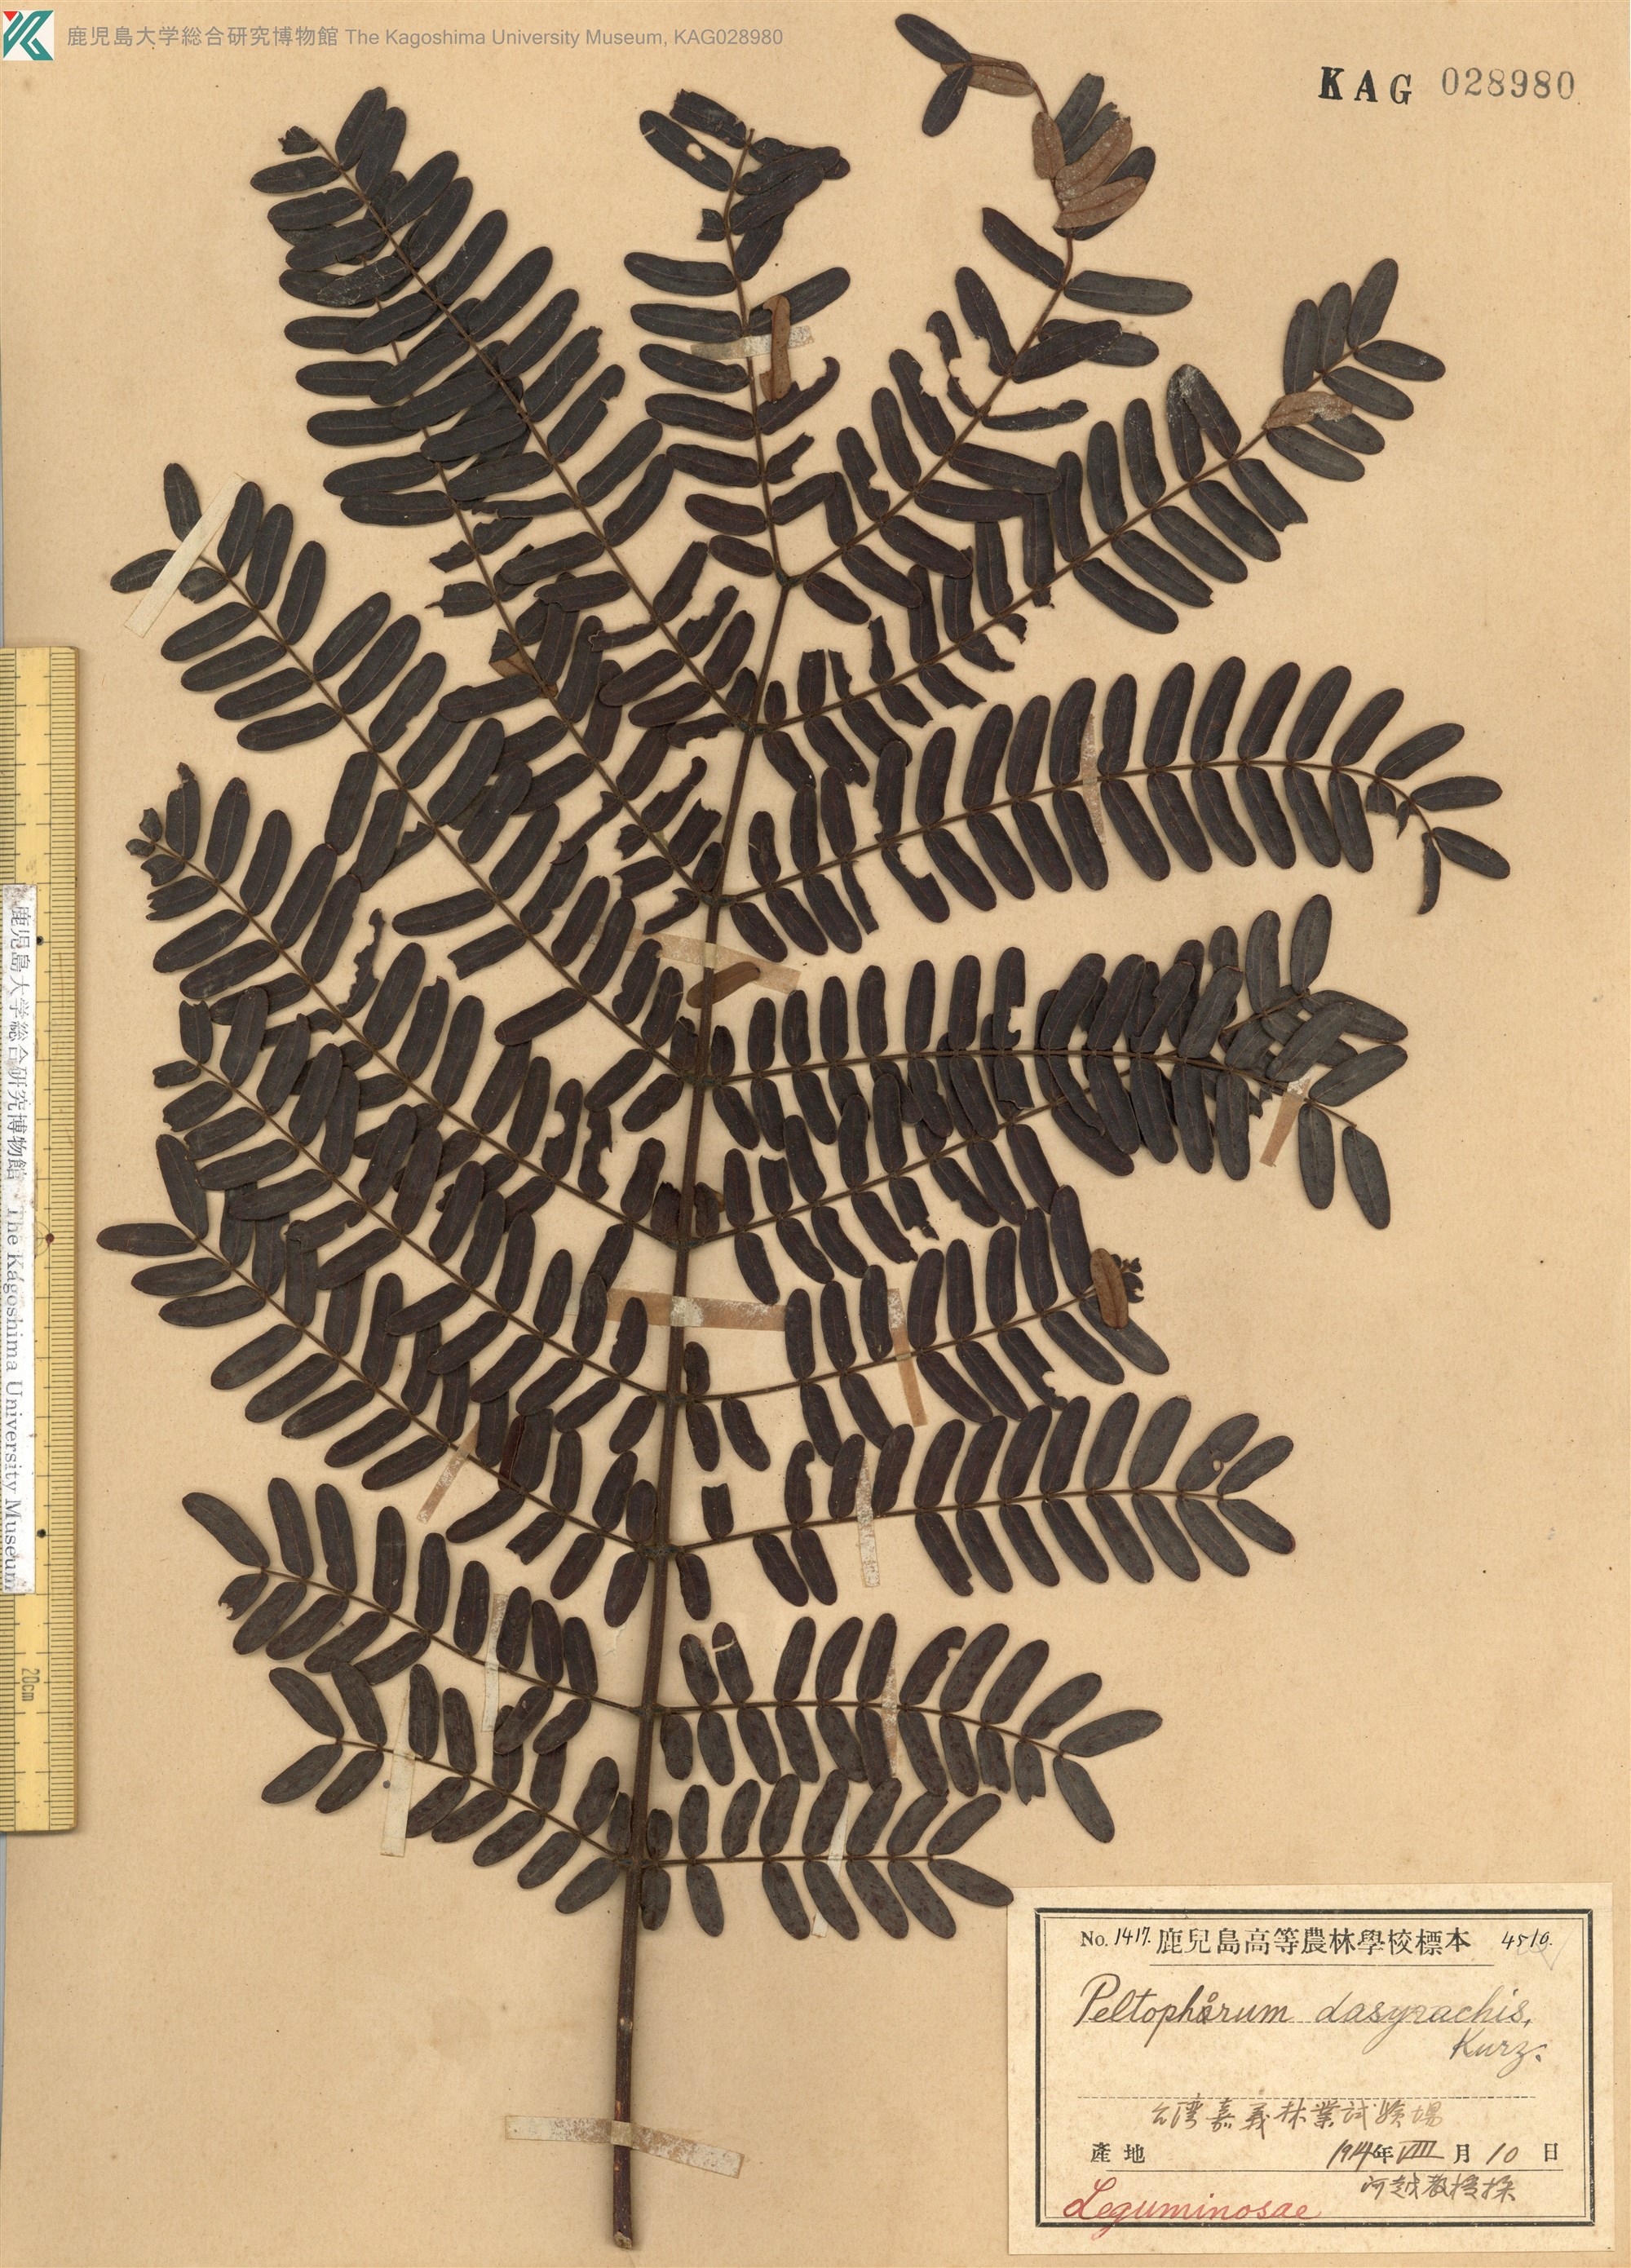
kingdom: Plantae
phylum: Tracheophyta
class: Magnoliopsida
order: Fabales
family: Fabaceae
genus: Peltophorum
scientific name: Peltophorum pterocarpum
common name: Yellow flame
